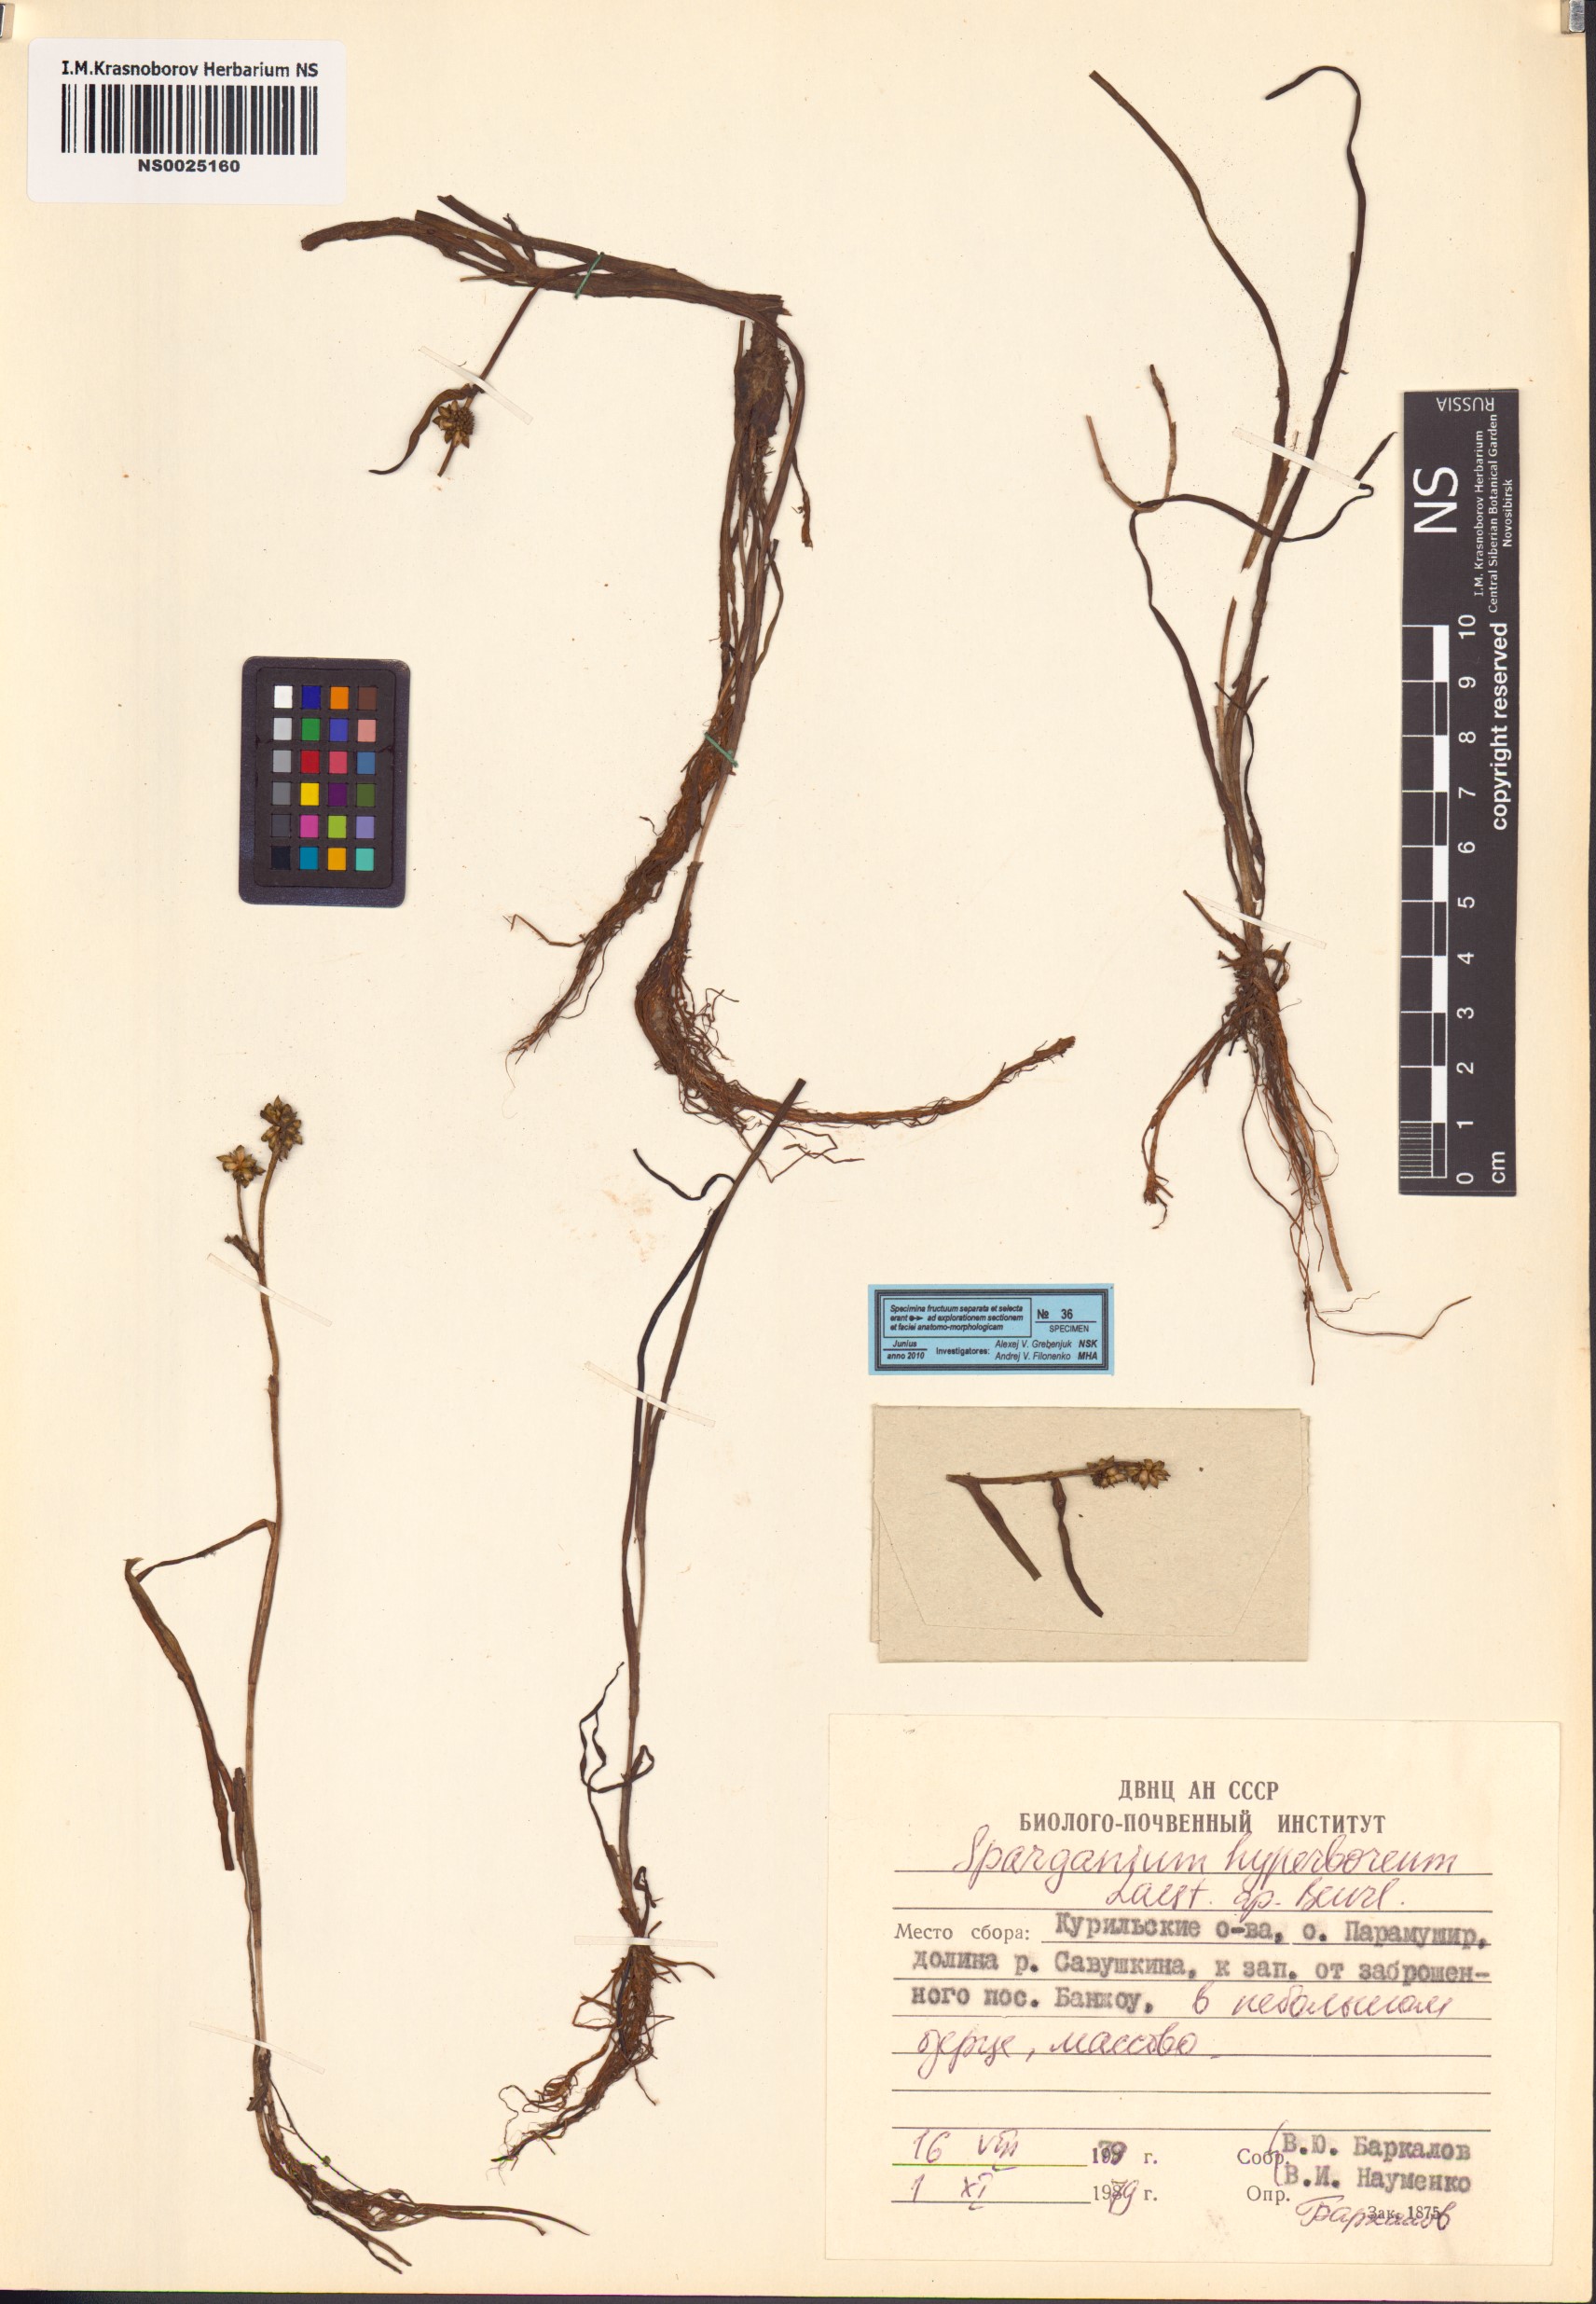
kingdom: Plantae
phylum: Tracheophyta
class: Liliopsida
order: Poales
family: Typhaceae
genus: Sparganium
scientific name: Sparganium hyperboreum
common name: Arctic burreed
